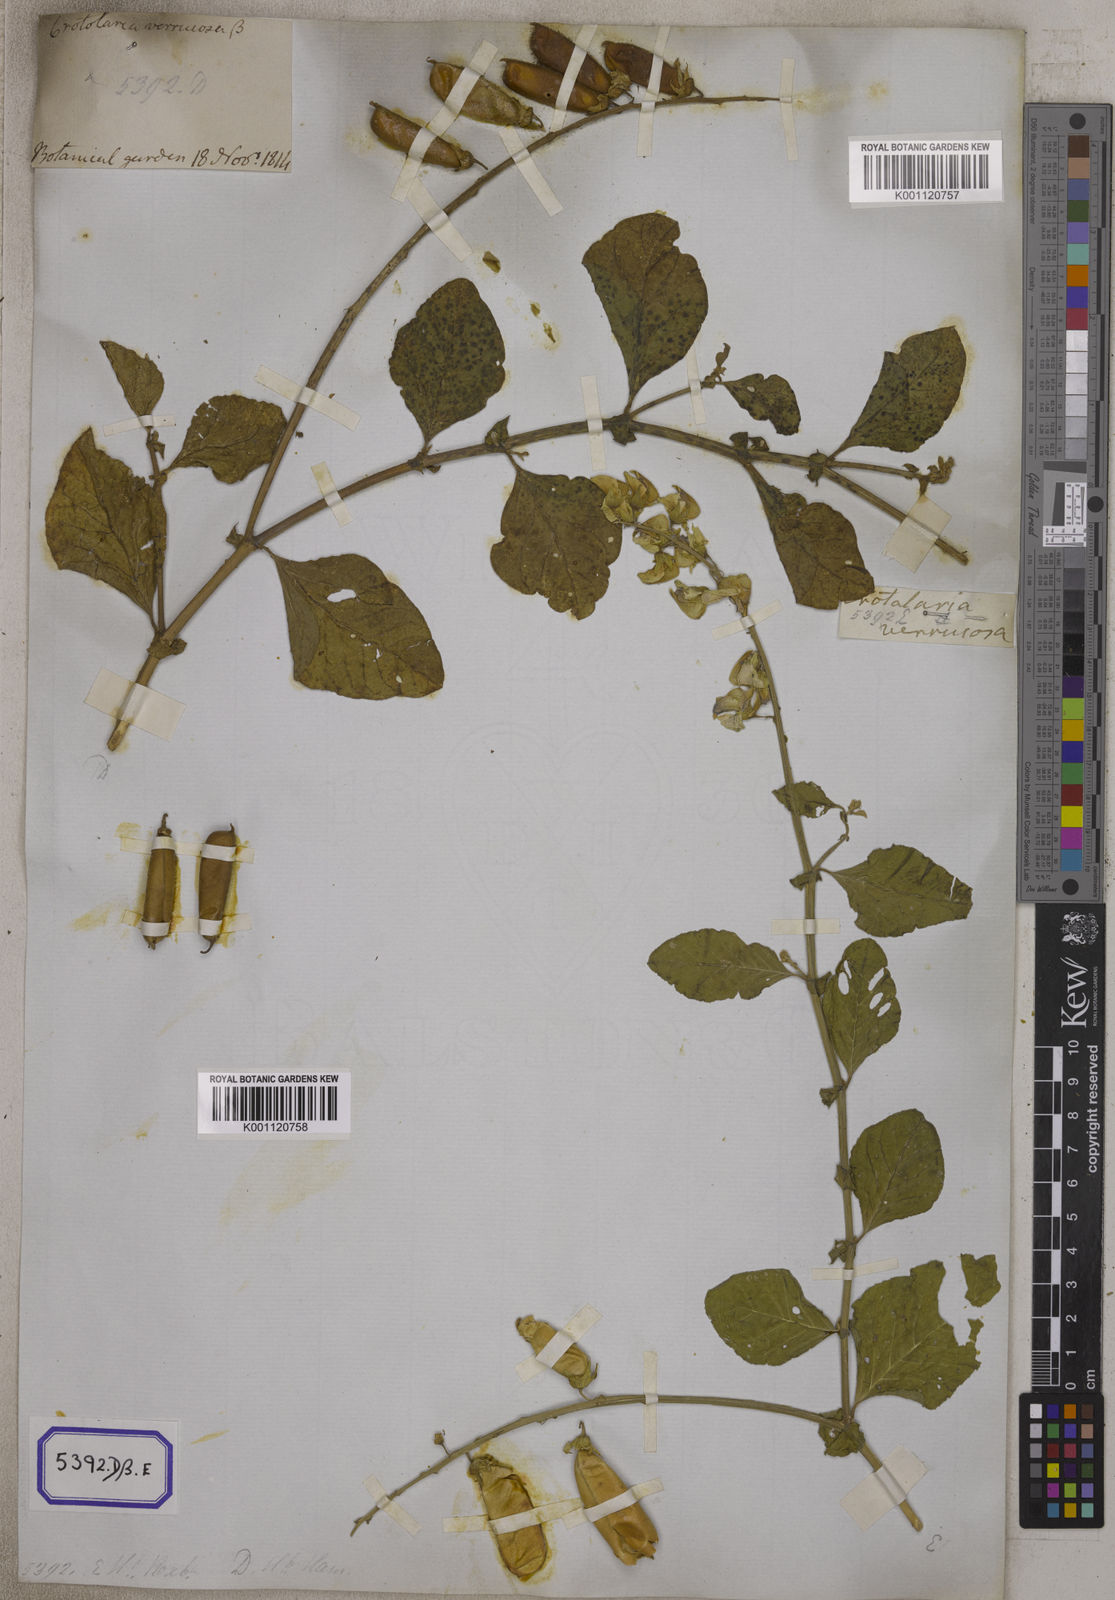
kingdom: Plantae
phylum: Tracheophyta
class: Magnoliopsida
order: Fabales
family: Fabaceae
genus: Crotalaria
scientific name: Crotalaria verrucosa
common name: Blue rattlesnake
